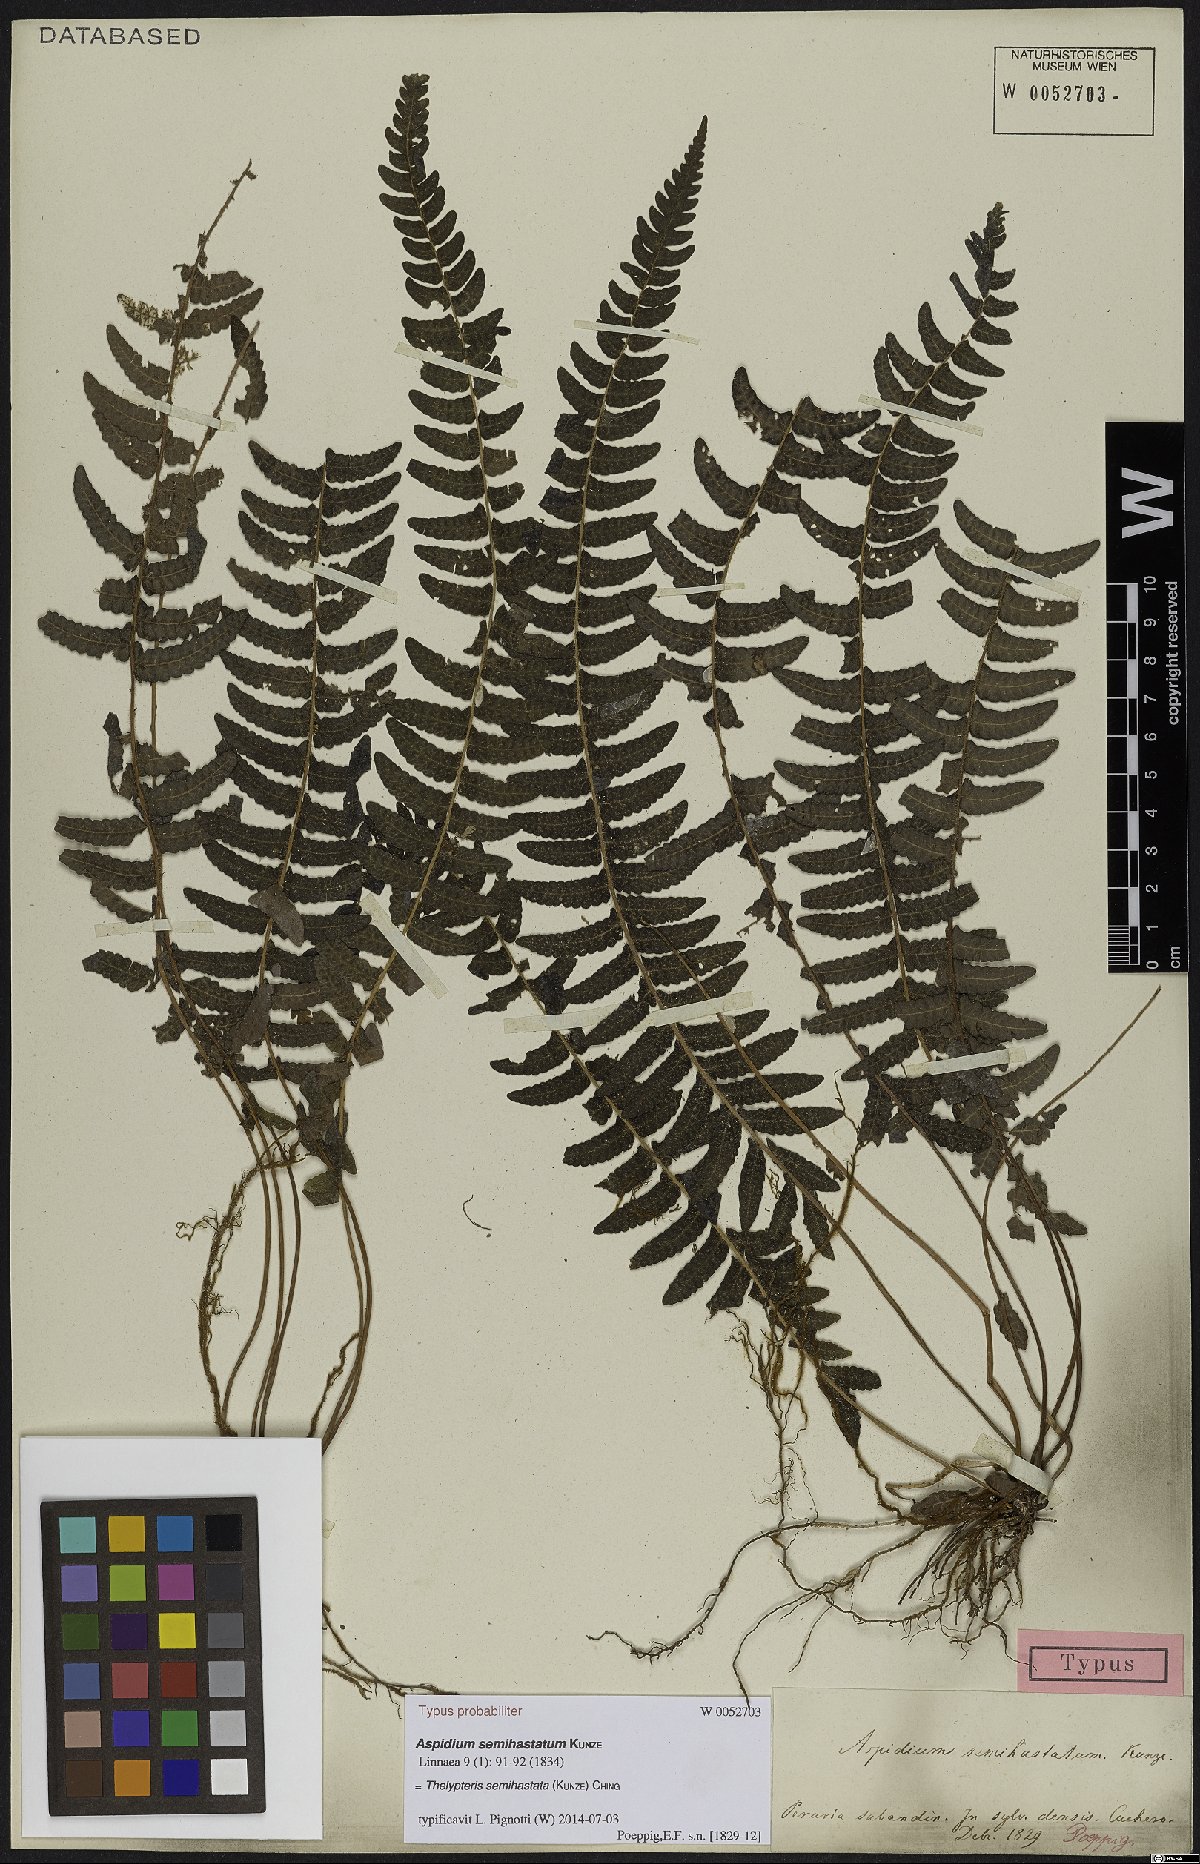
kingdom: Plantae
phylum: Tracheophyta
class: Polypodiopsida
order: Polypodiales
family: Thelypteridaceae
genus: Goniopteris
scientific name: Goniopteris semihastata
